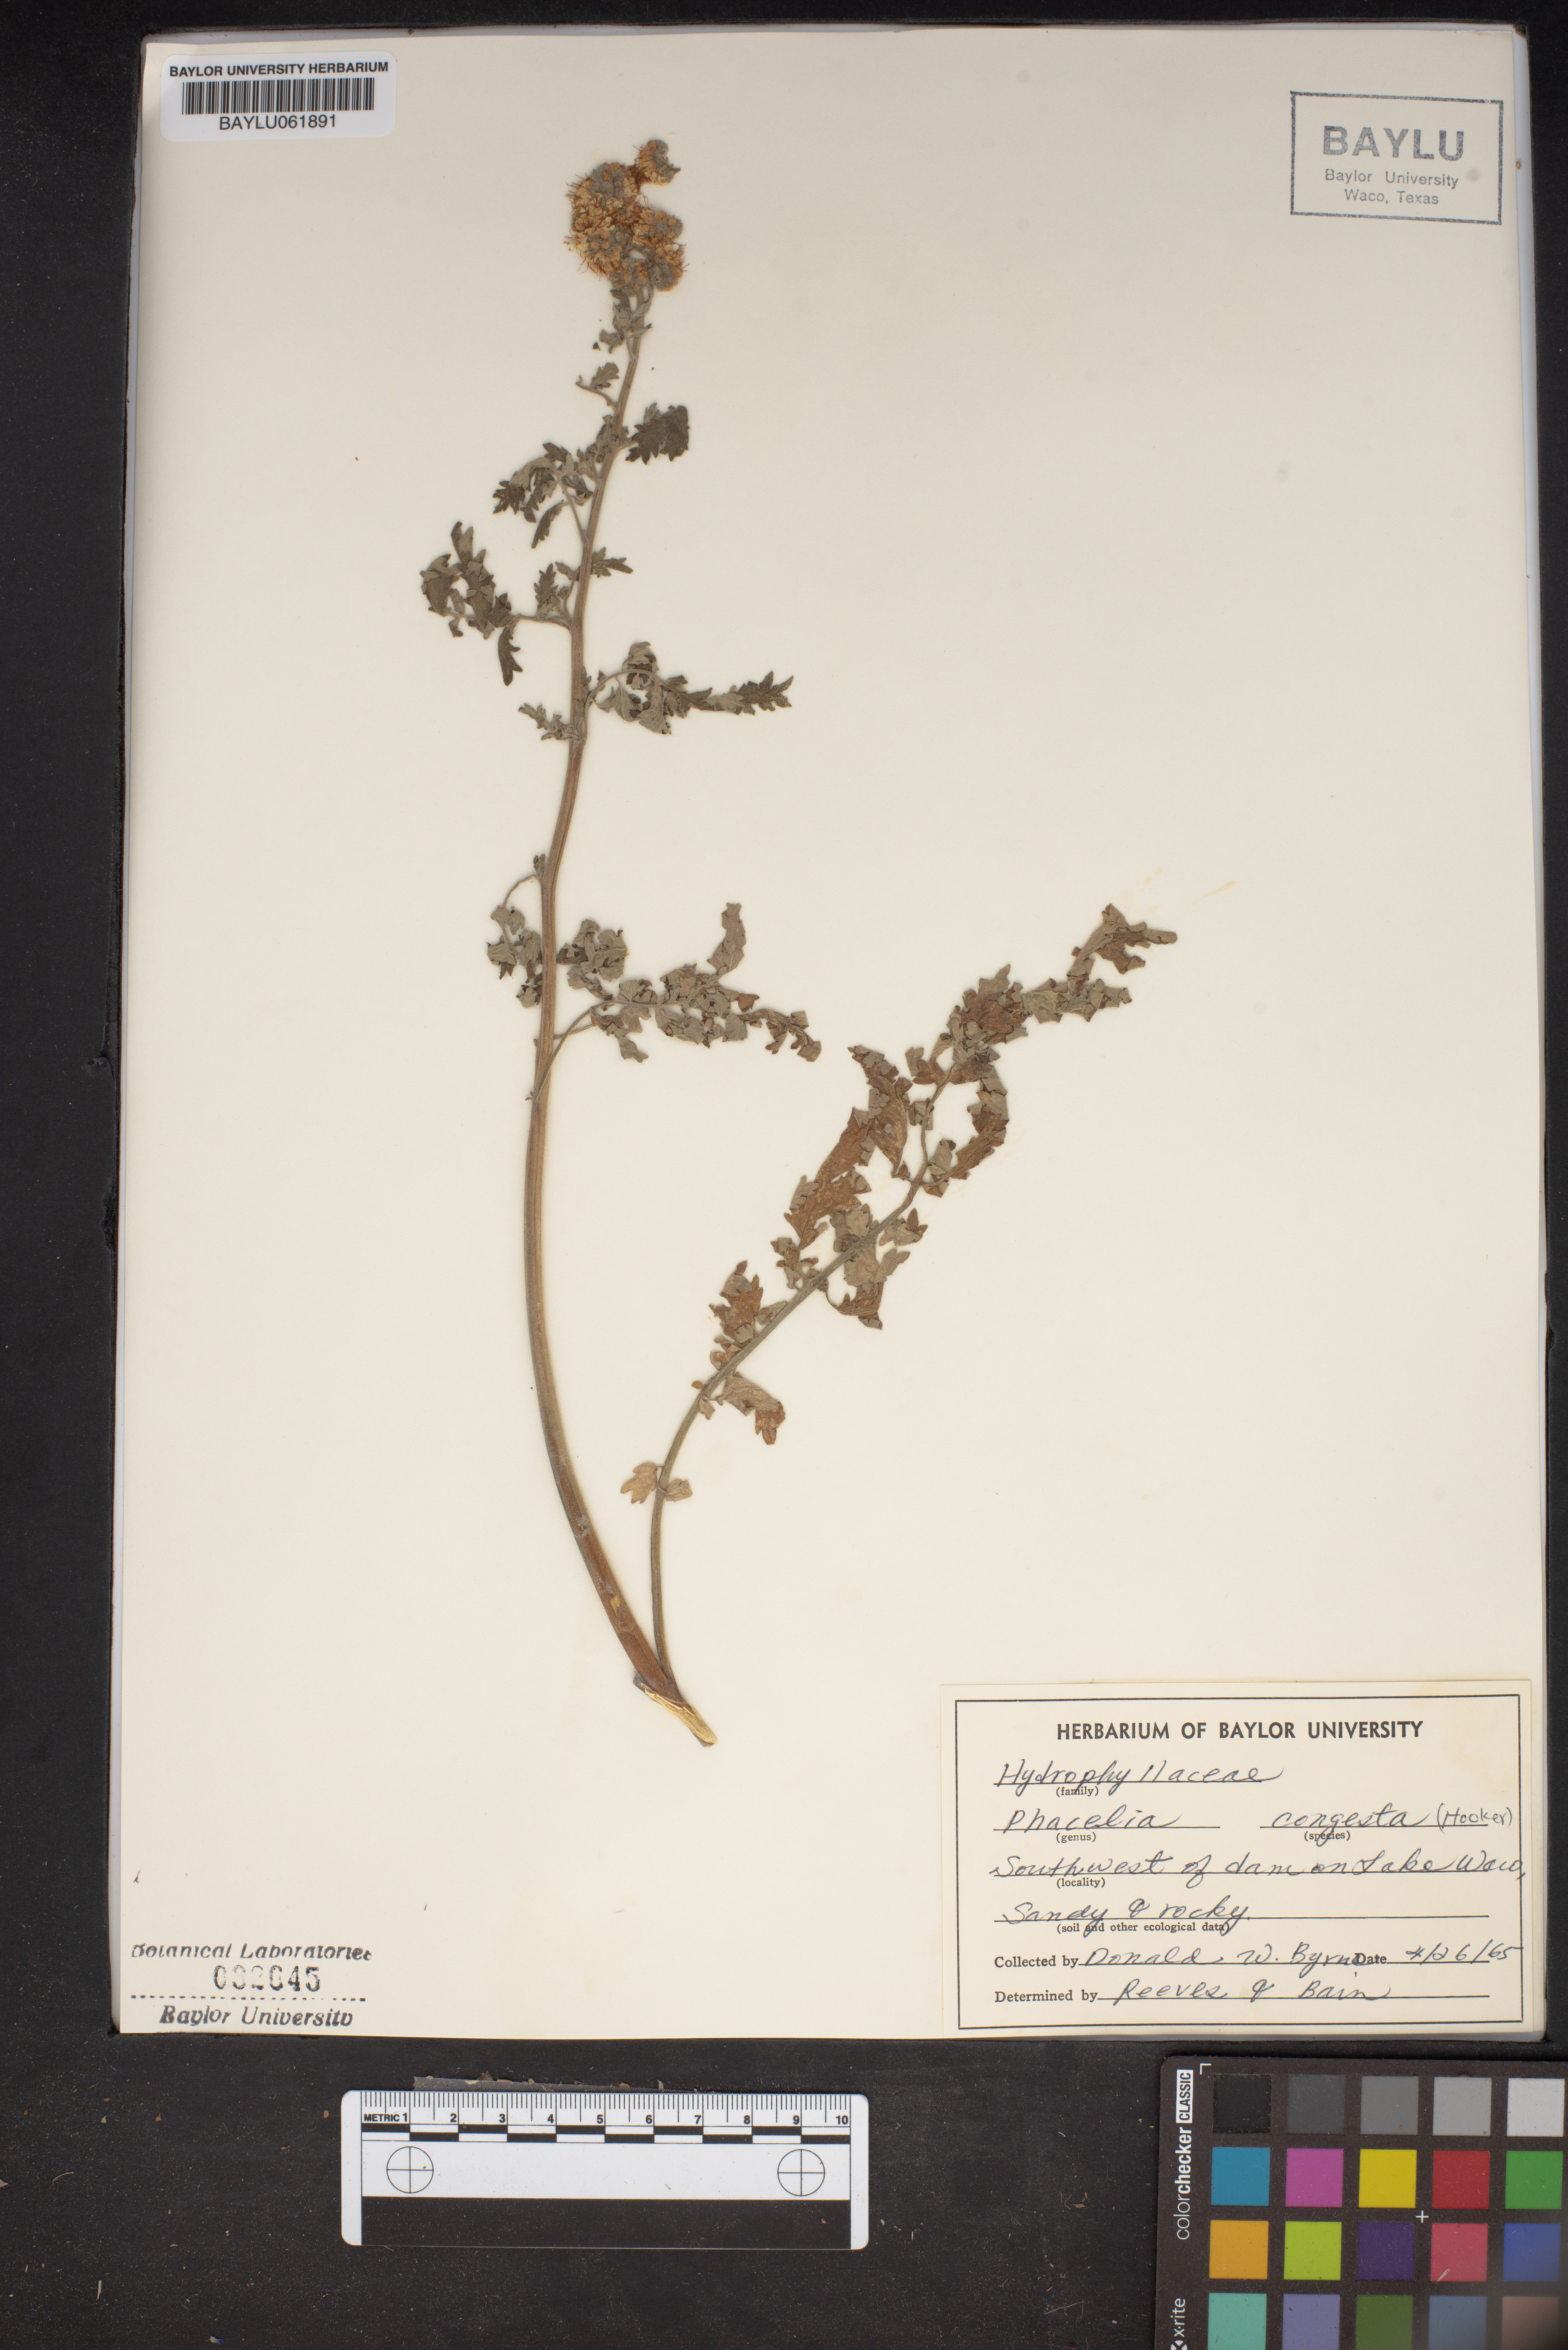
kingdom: Plantae
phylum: Tracheophyta
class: Magnoliopsida
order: Boraginales
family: Hydrophyllaceae
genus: Phacelia
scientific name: Phacelia congesta
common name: Blue curls
